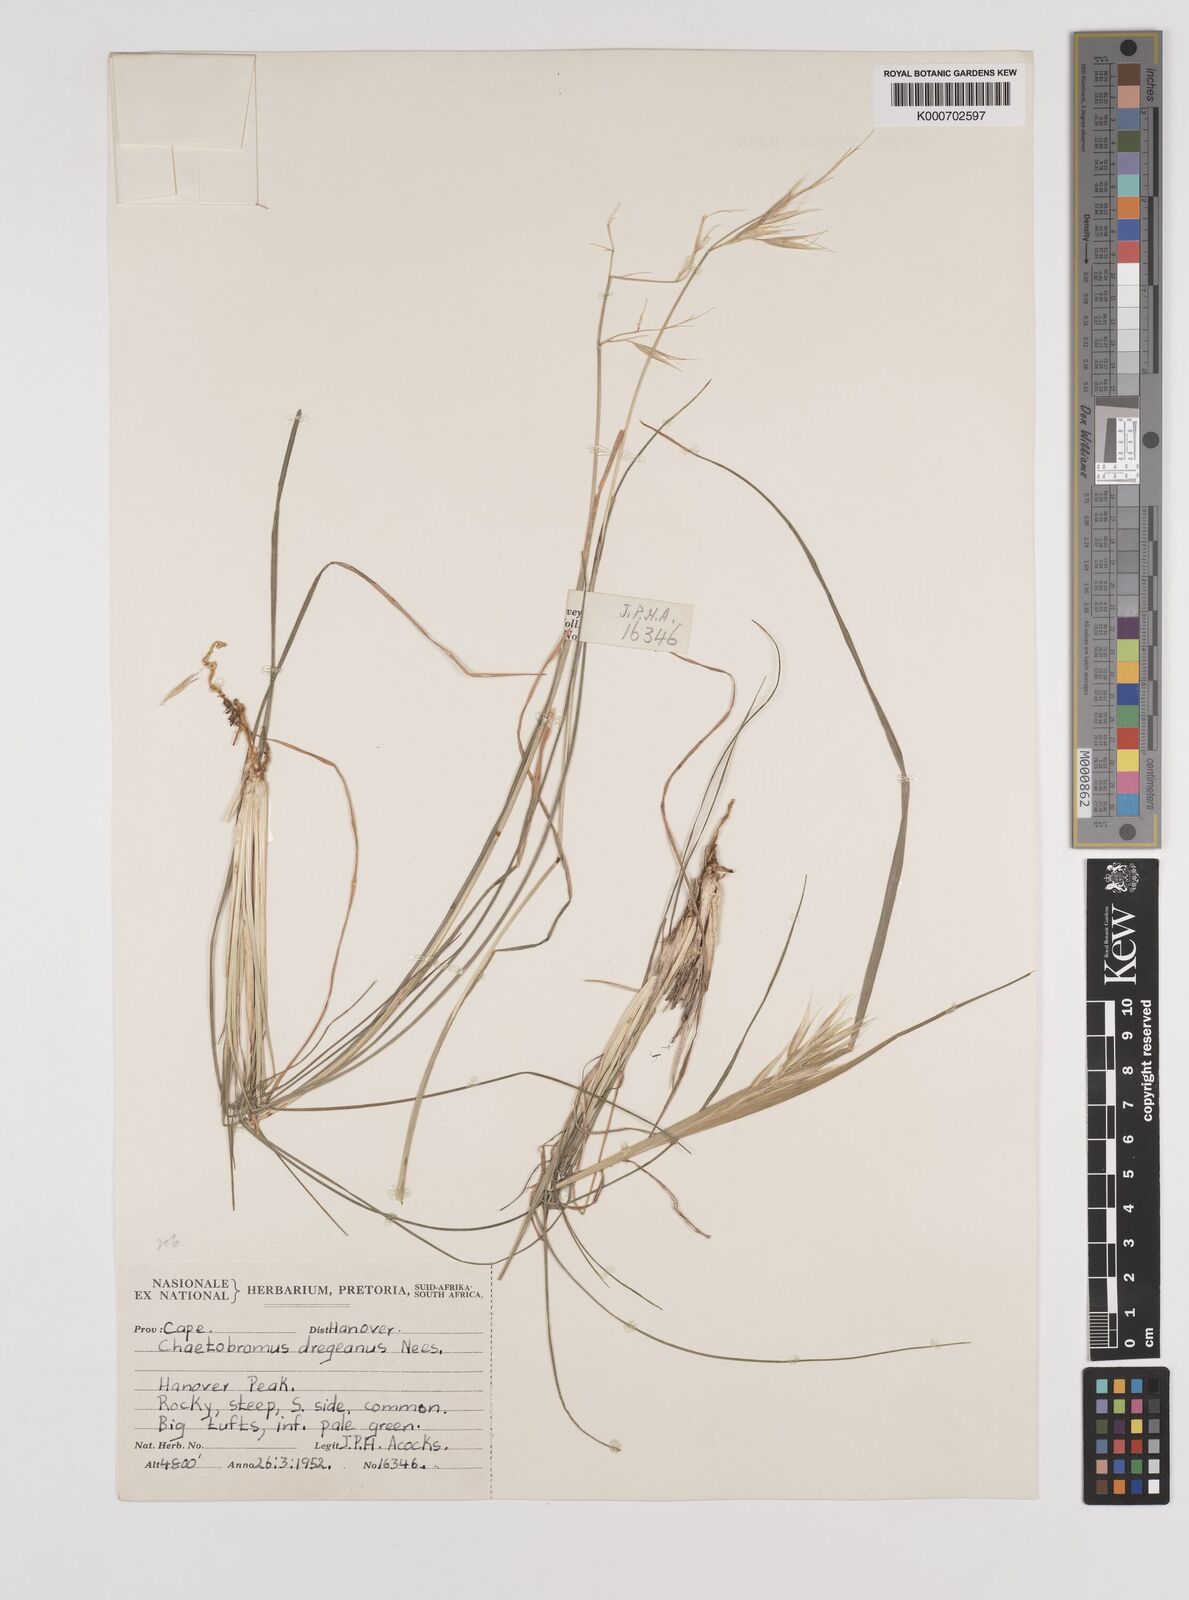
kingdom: Plantae
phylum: Tracheophyta
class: Liliopsida
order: Poales
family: Poaceae
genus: Chaetobromus
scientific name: Chaetobromus involucratus
